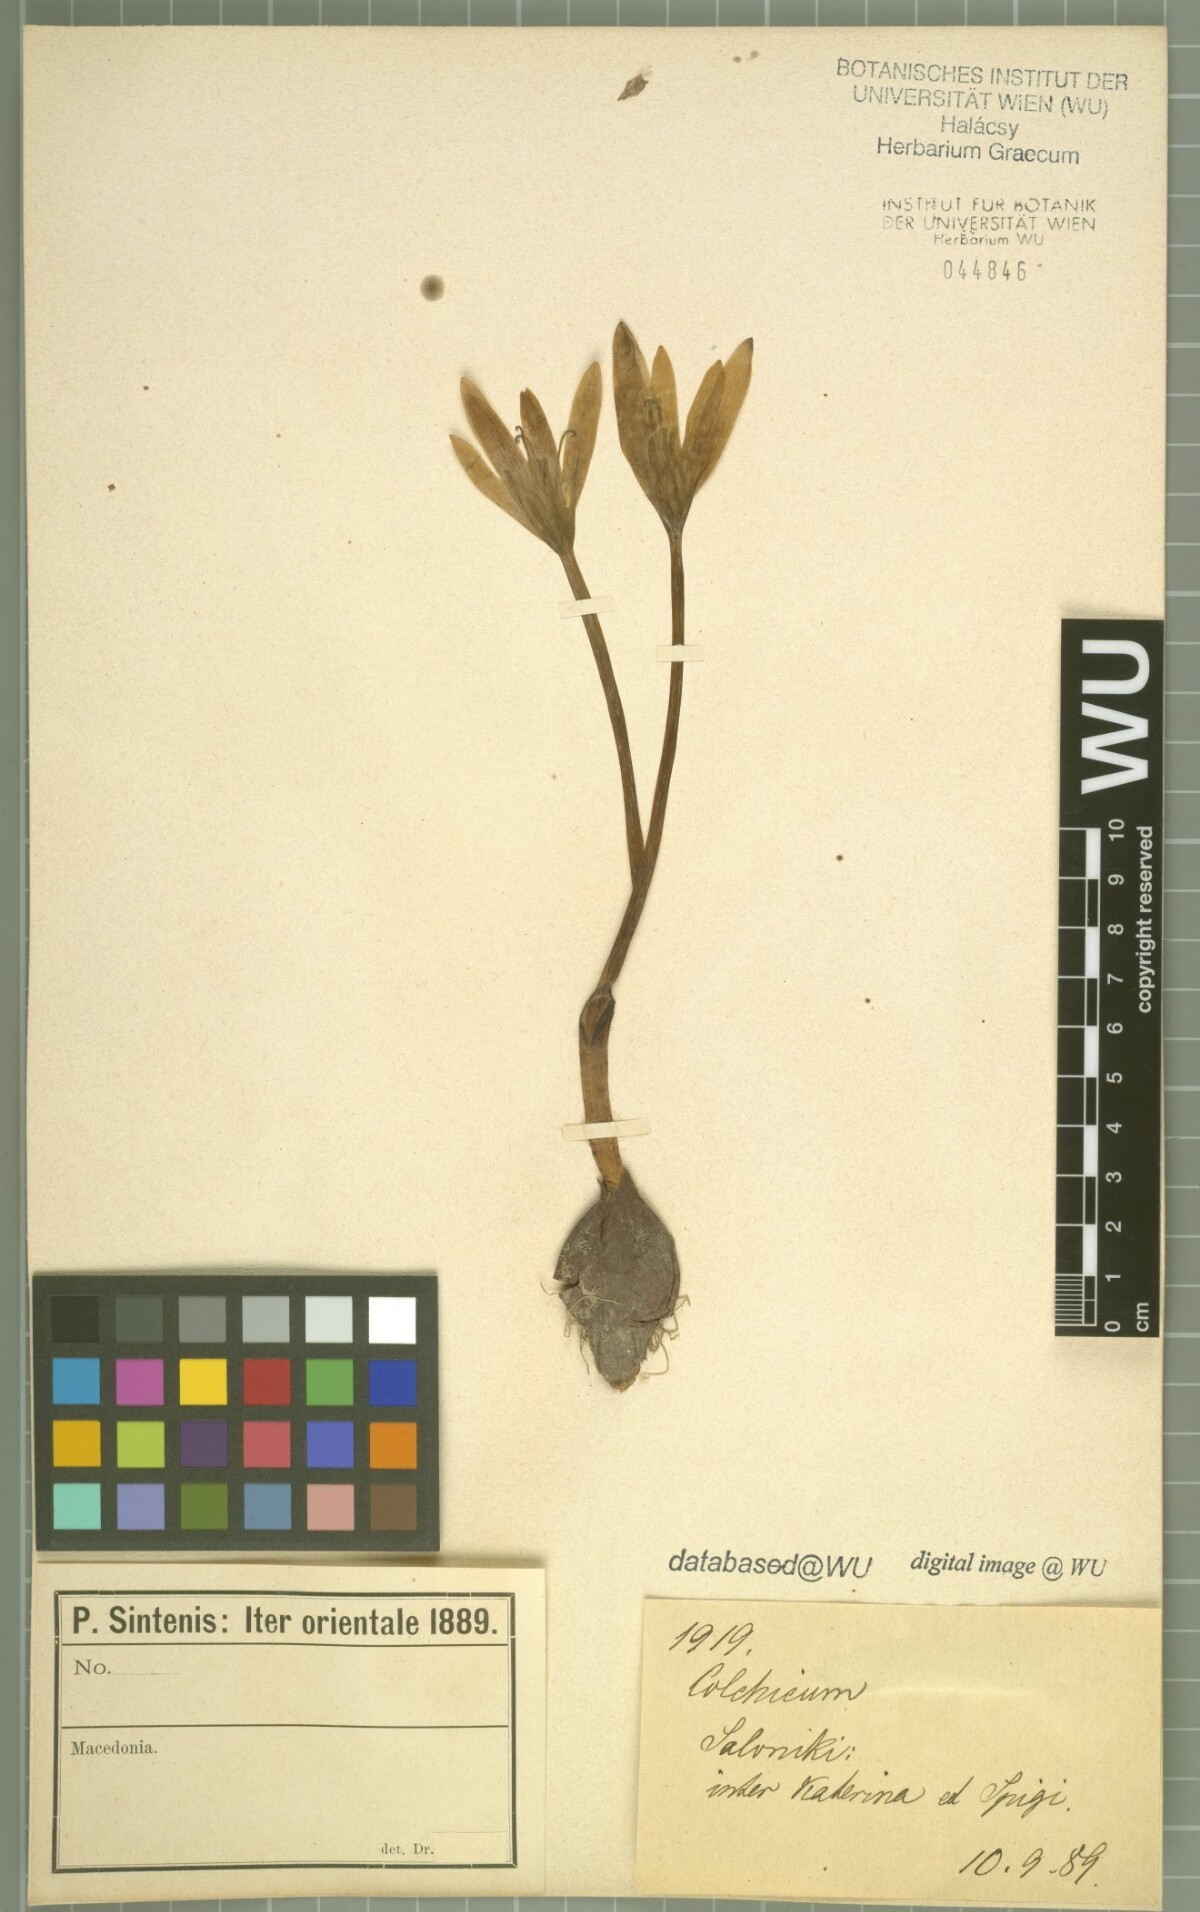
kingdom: Plantae
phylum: Tracheophyta
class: Liliopsida
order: Liliales
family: Colchicaceae
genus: Colchicum
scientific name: Colchicum haynaldii
